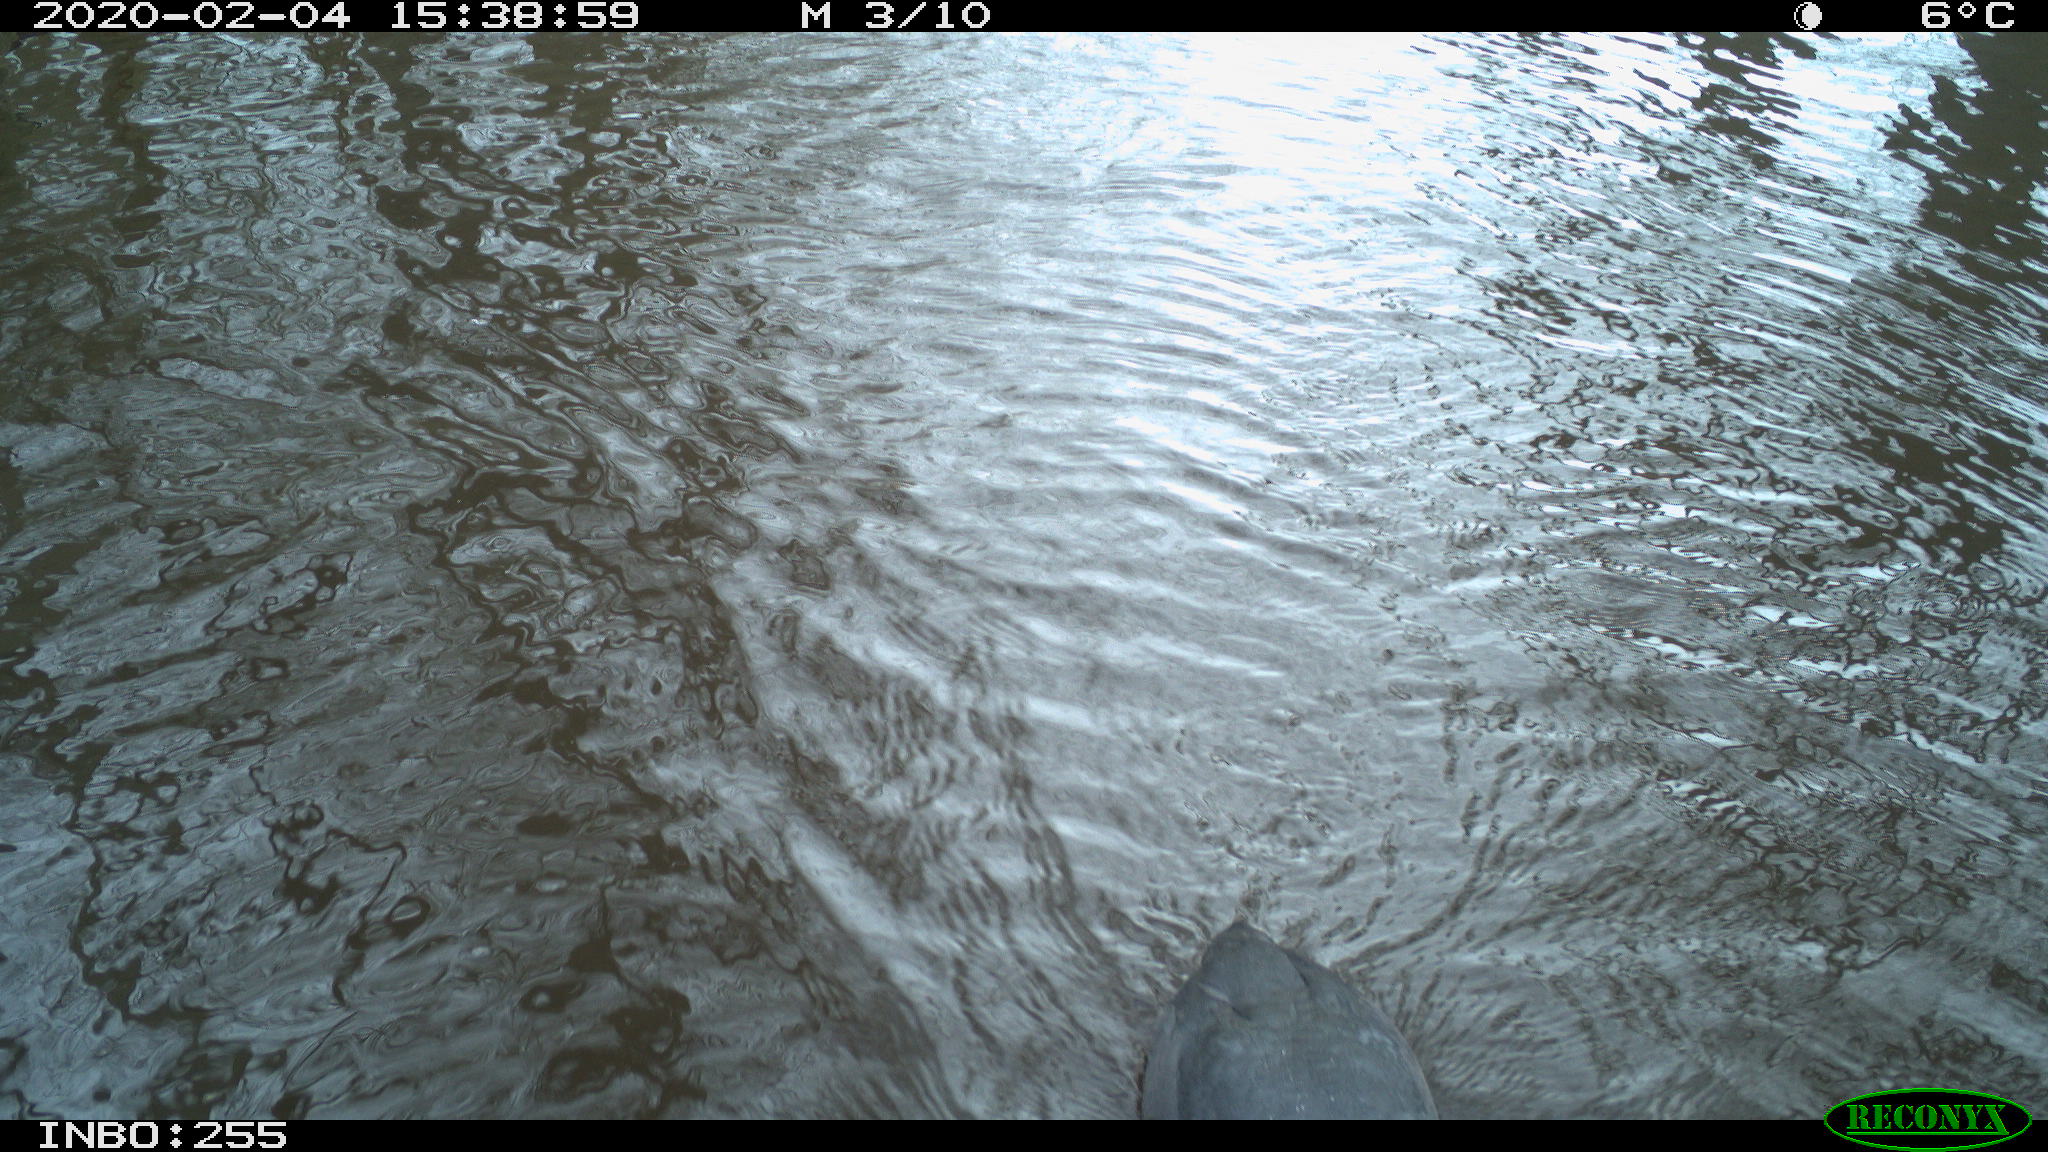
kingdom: Animalia
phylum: Chordata
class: Aves
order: Gruiformes
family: Rallidae
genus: Fulica
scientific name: Fulica atra
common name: Eurasian coot
